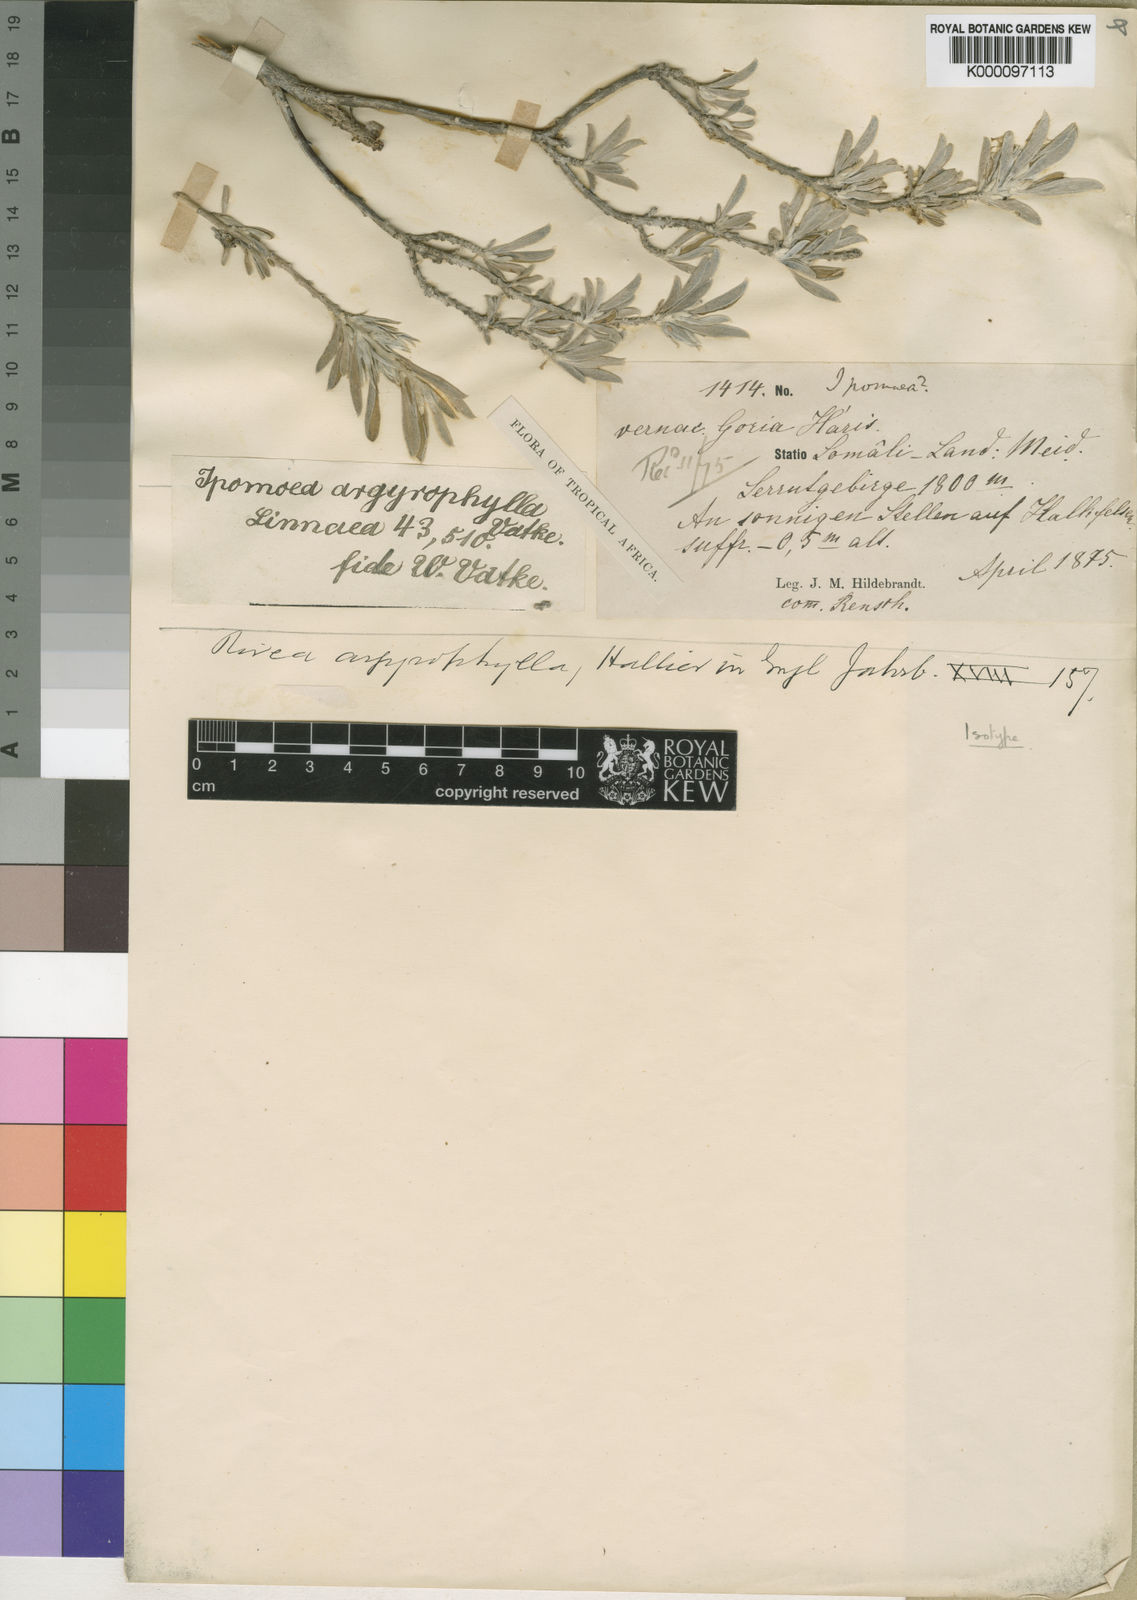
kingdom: Plantae
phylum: Tracheophyta
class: Magnoliopsida
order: Solanales
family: Convolvulaceae
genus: Ipomoea
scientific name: Ipomoea argyrophylla
